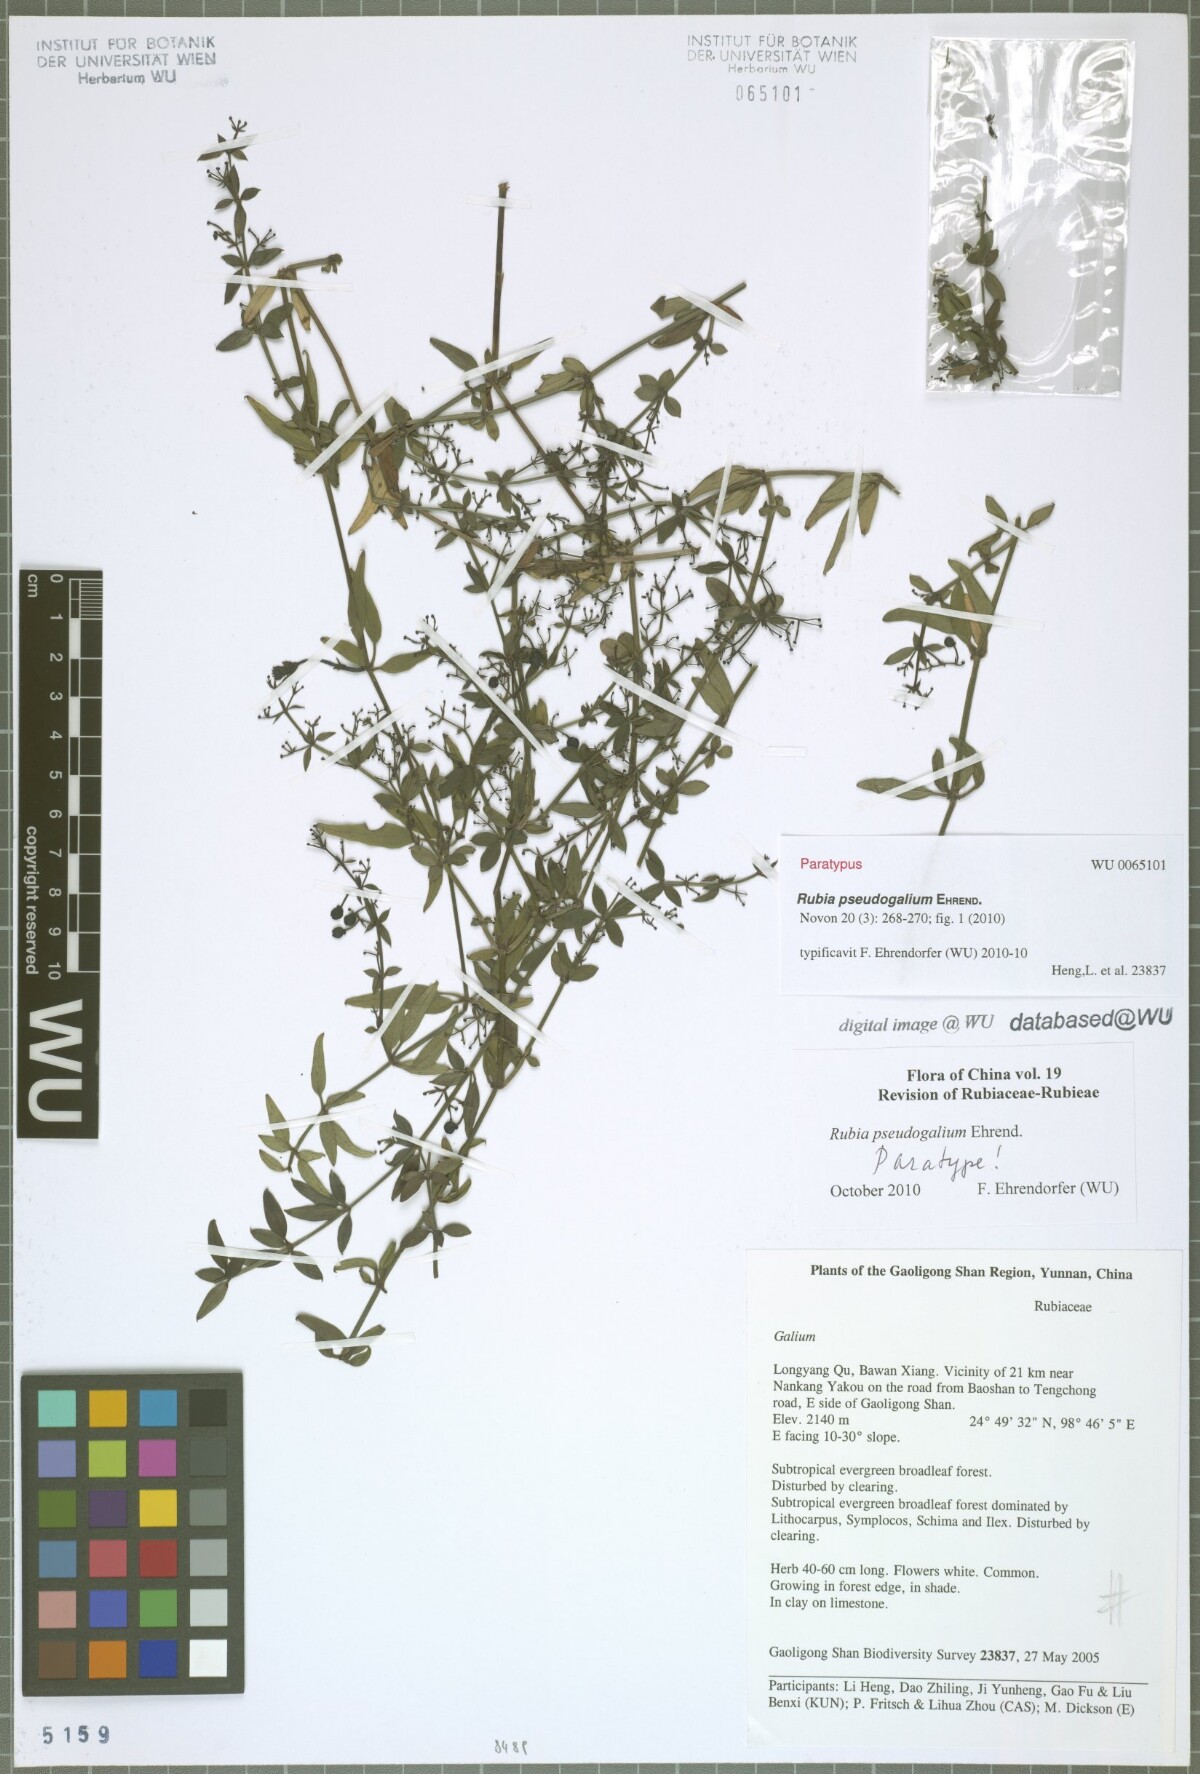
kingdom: Plantae
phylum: Tracheophyta
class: Magnoliopsida
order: Gentianales
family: Rubiaceae
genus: Rubia
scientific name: Rubia pseudogalium
